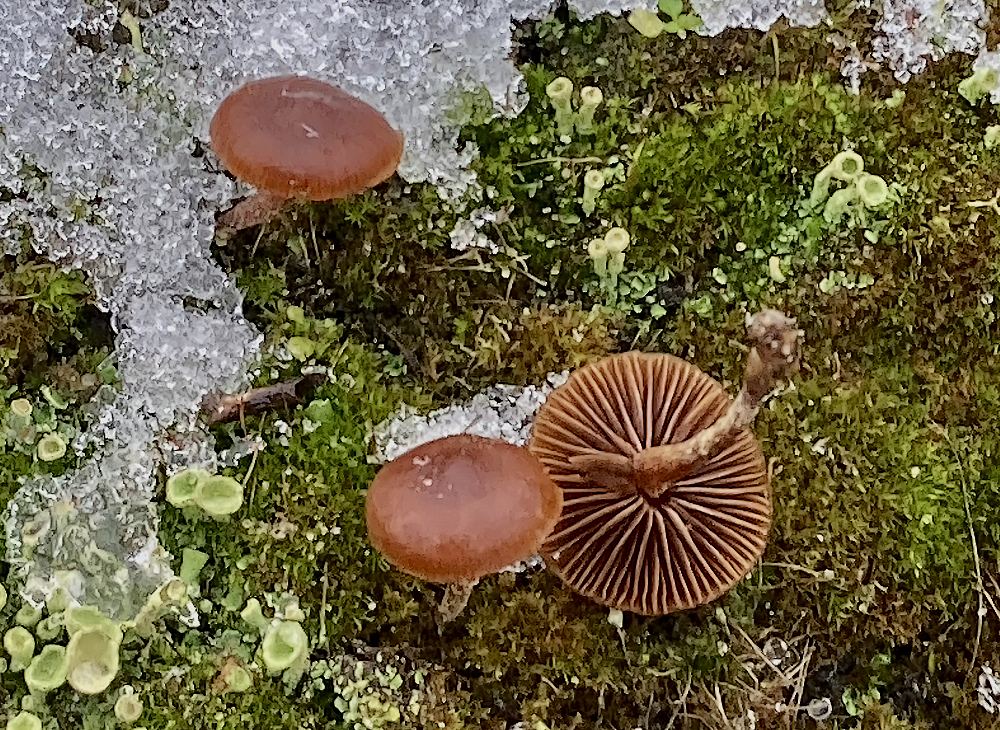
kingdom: Fungi
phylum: Basidiomycota
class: Agaricomycetes
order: Agaricales
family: Strophariaceae
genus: Deconica
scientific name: Deconica montana
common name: rødbrun stråhat
